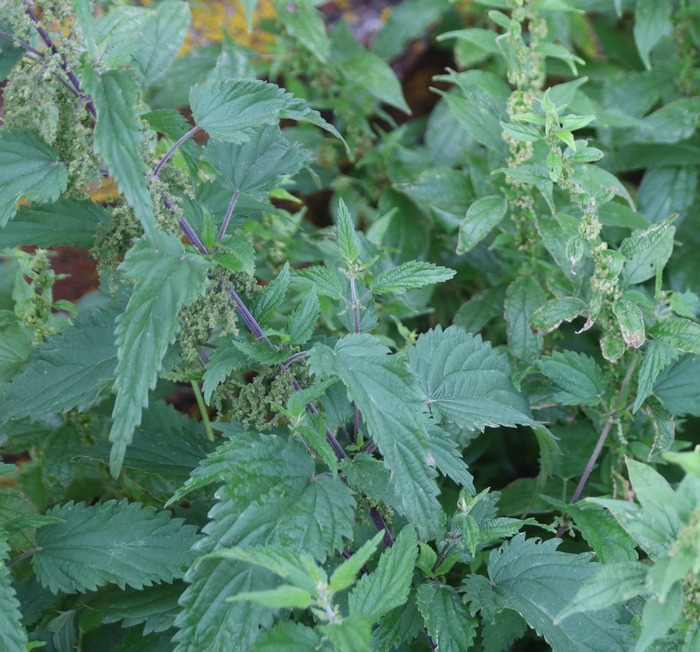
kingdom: Plantae
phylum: Tracheophyta
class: Magnoliopsida
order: Rosales
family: Urticaceae
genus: Urtica
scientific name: Urtica dioica
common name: Stor nælde
